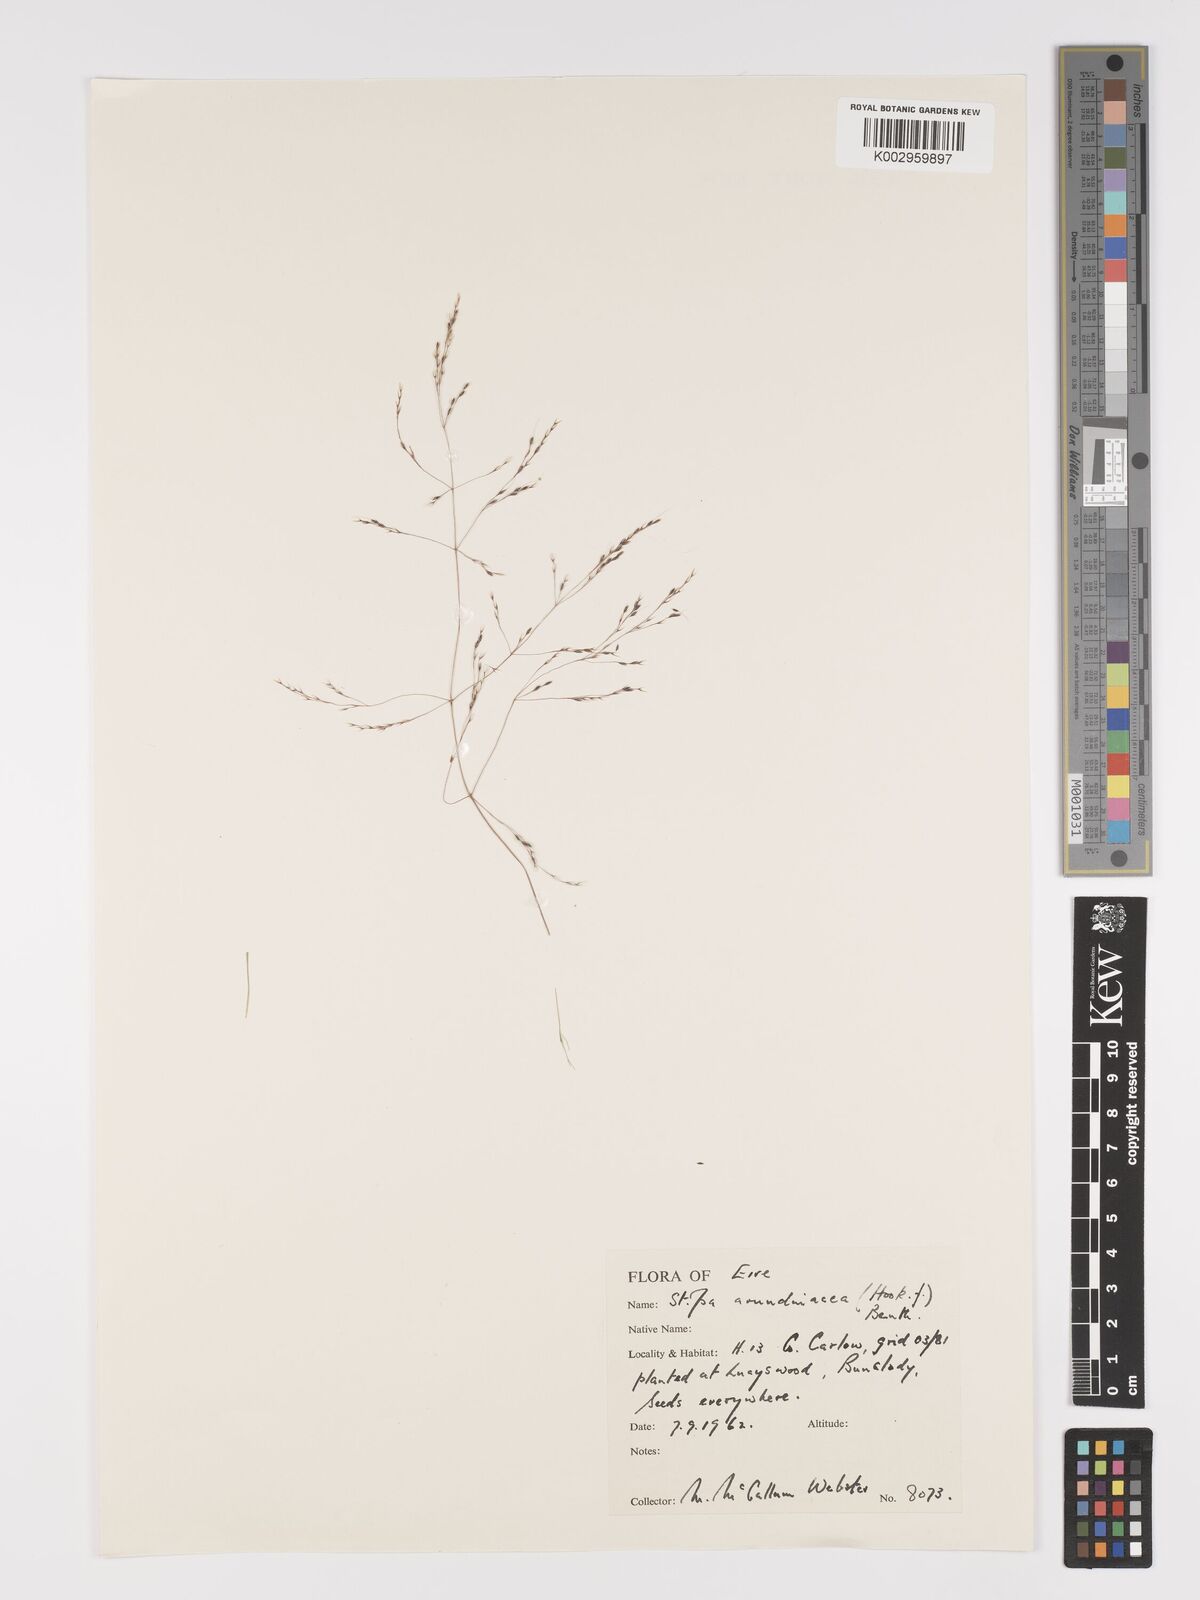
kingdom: Plantae
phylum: Tracheophyta
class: Liliopsida
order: Poales
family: Poaceae
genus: Stipa
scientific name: Stipa
